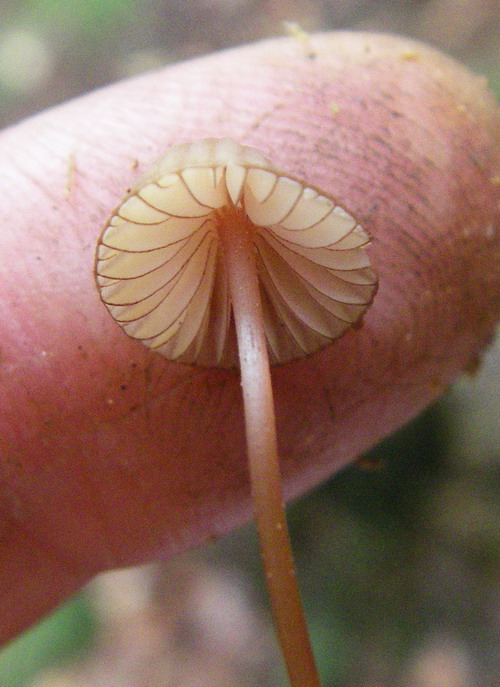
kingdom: Fungi
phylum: Basidiomycota
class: Agaricomycetes
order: Agaricales
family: Mycenaceae
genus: Mycena
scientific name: Mycena rubromarginata
